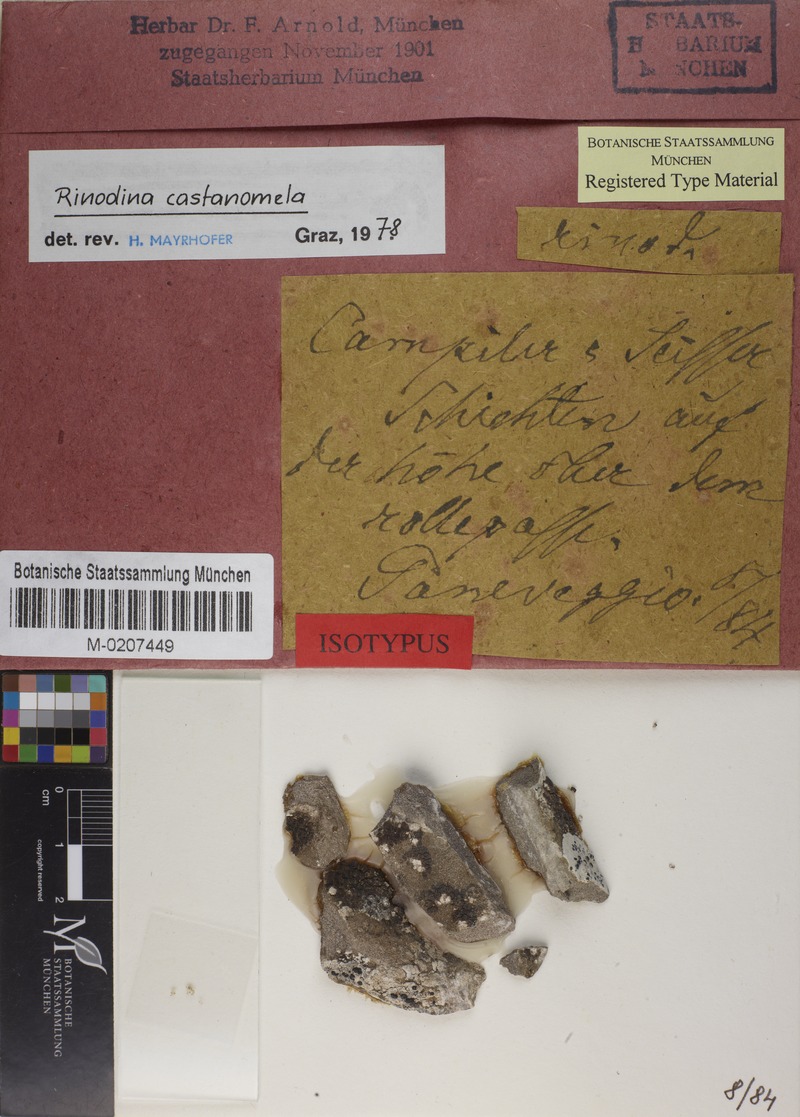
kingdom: Fungi
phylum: Ascomycota
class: Lecanoromycetes
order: Caliciales
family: Physciaceae
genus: Rinodina
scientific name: Rinodina castanomela
